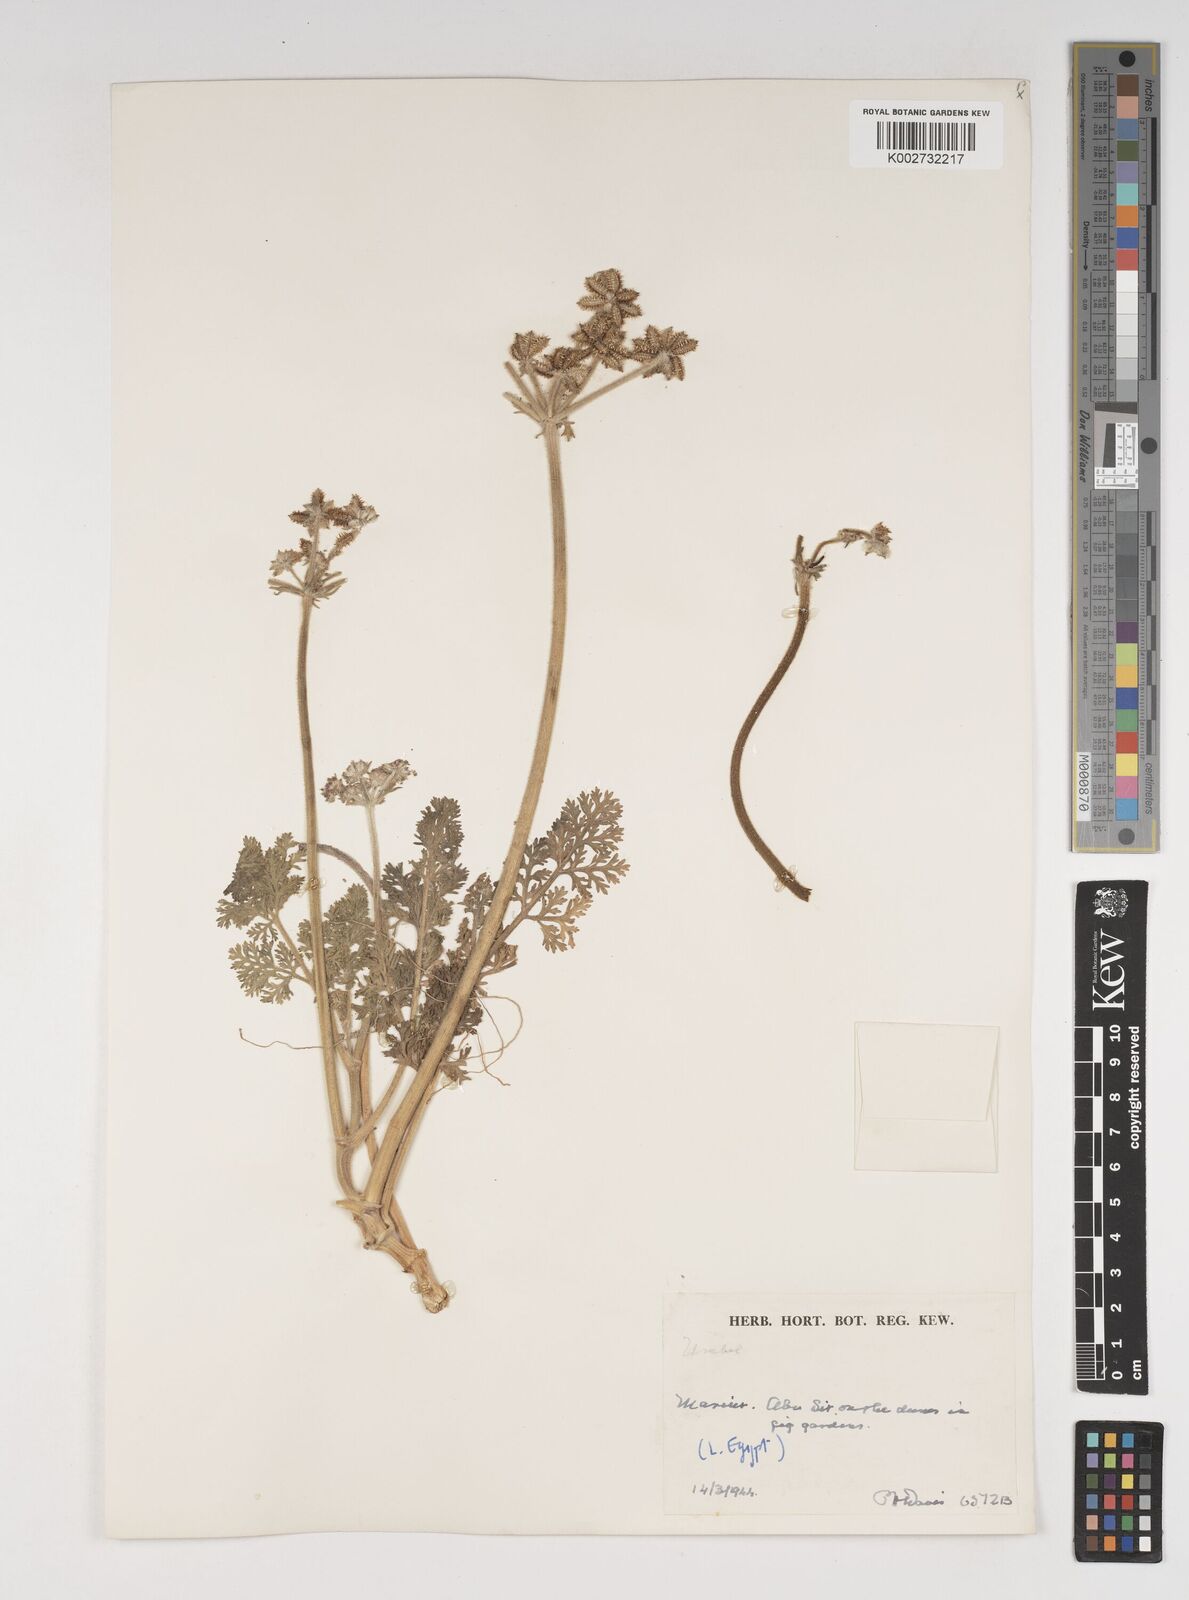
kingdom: Plantae
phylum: Tracheophyta
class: Magnoliopsida
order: Apiales
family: Apiaceae
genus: Daucus
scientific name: Daucus pumilus
